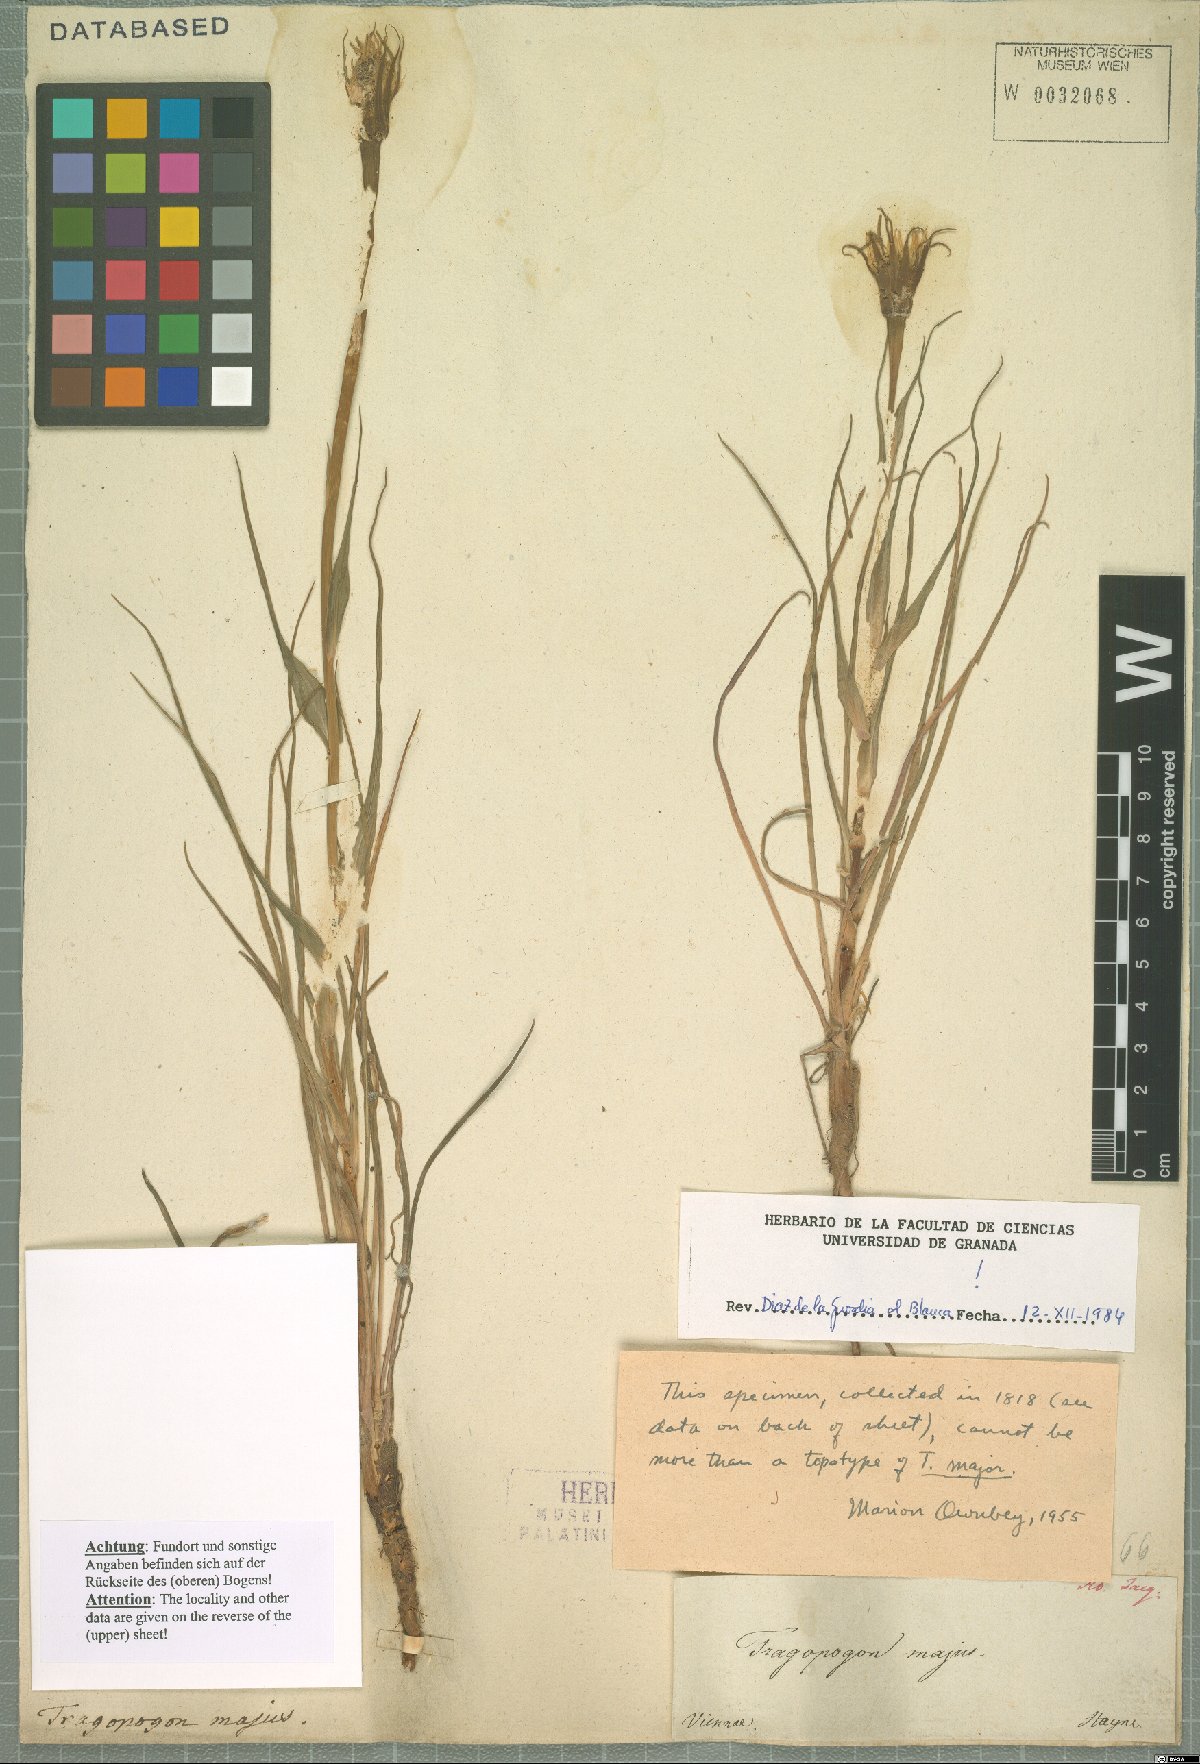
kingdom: Plantae
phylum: Tracheophyta
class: Magnoliopsida
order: Asterales
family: Asteraceae
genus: Tragopogon
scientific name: Tragopogon dubius
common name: Yellow salsify
